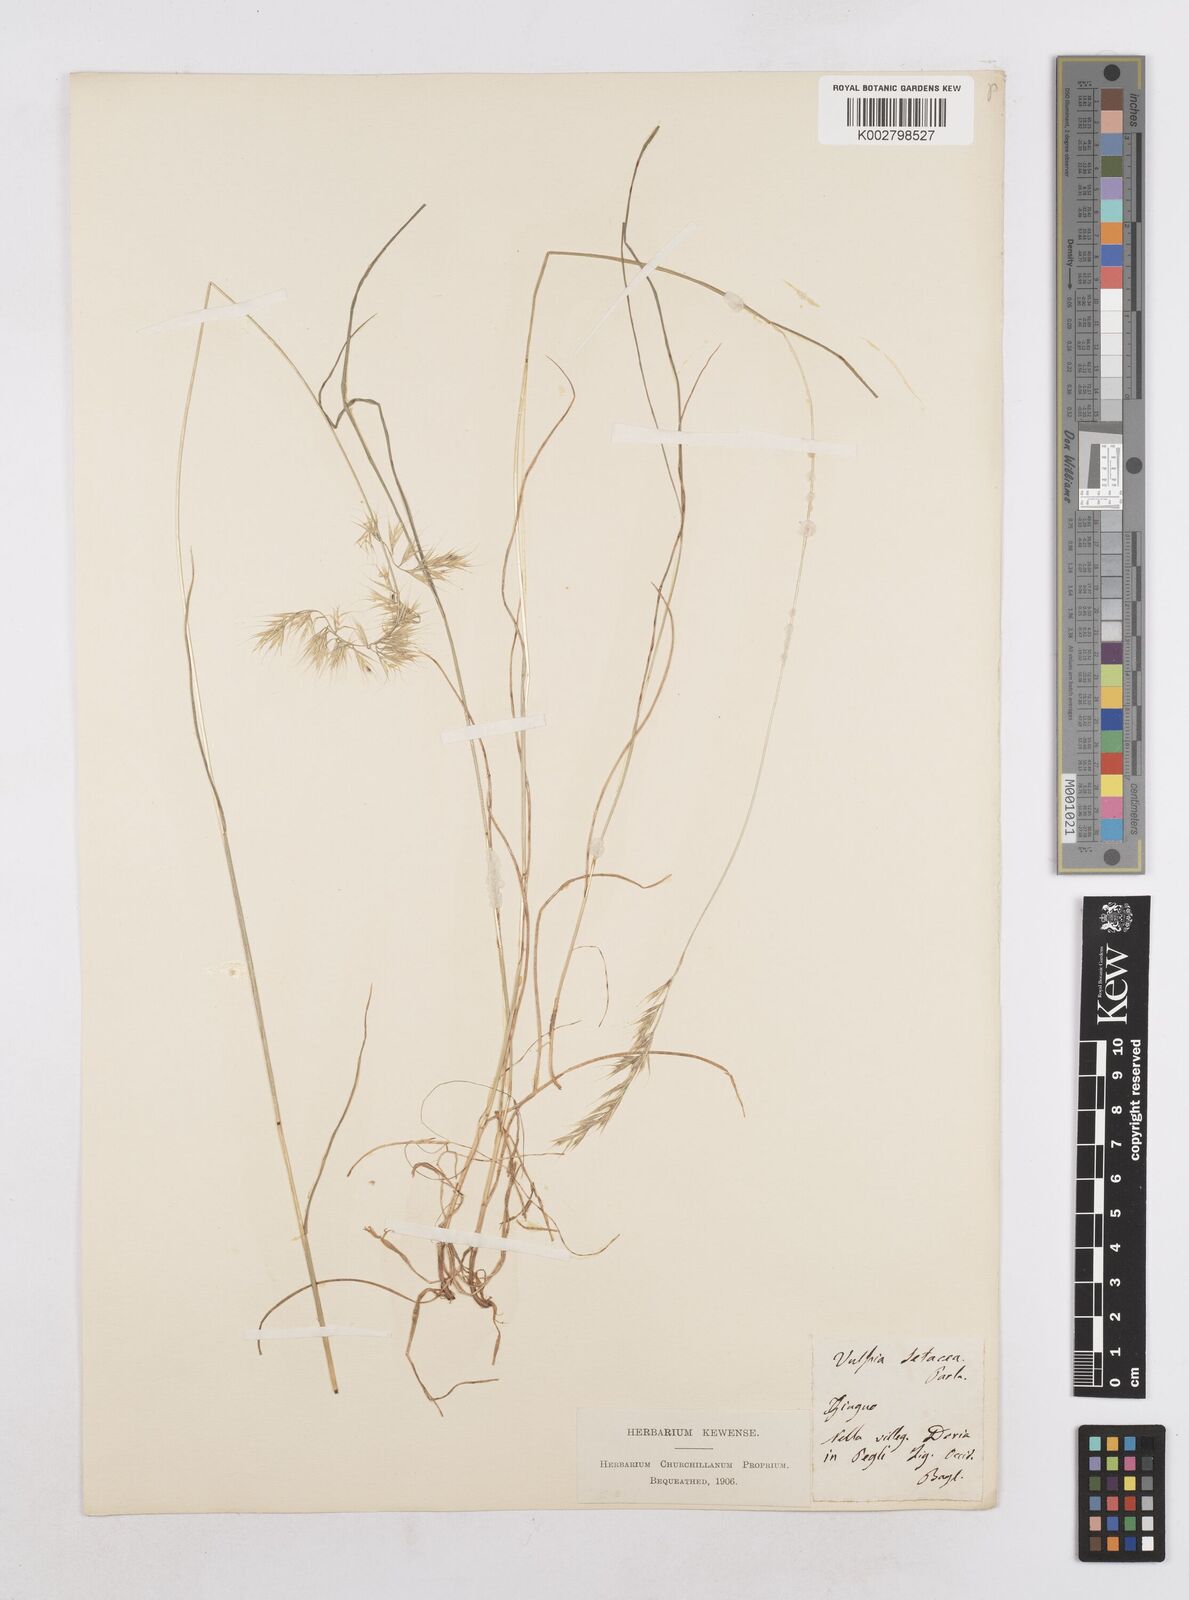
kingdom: Plantae
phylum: Tracheophyta
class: Liliopsida
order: Poales
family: Poaceae
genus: Festuca
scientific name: Festuca sicula
